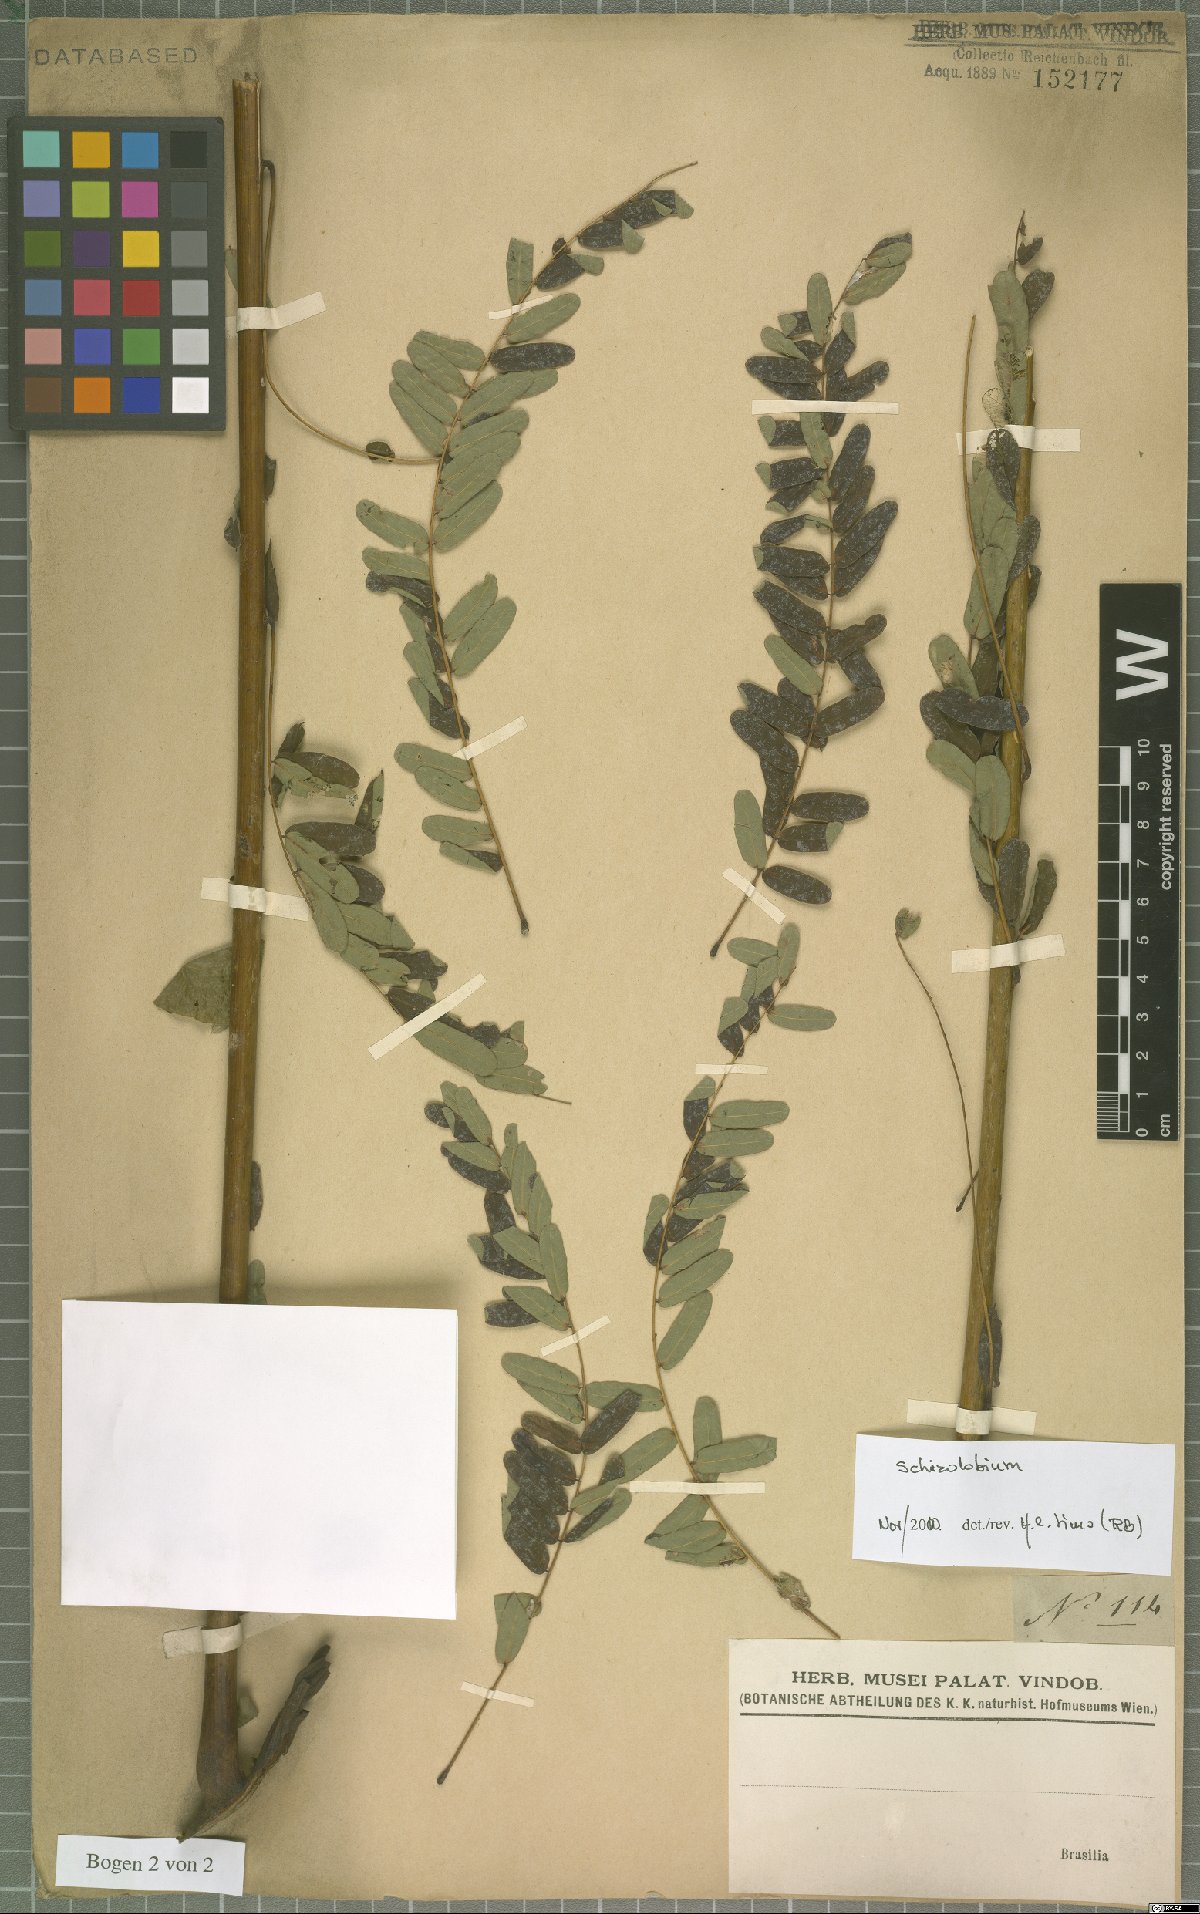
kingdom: Plantae
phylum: Tracheophyta
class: Magnoliopsida
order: Fabales
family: Fabaceae
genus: Schizolobium
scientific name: Schizolobium
